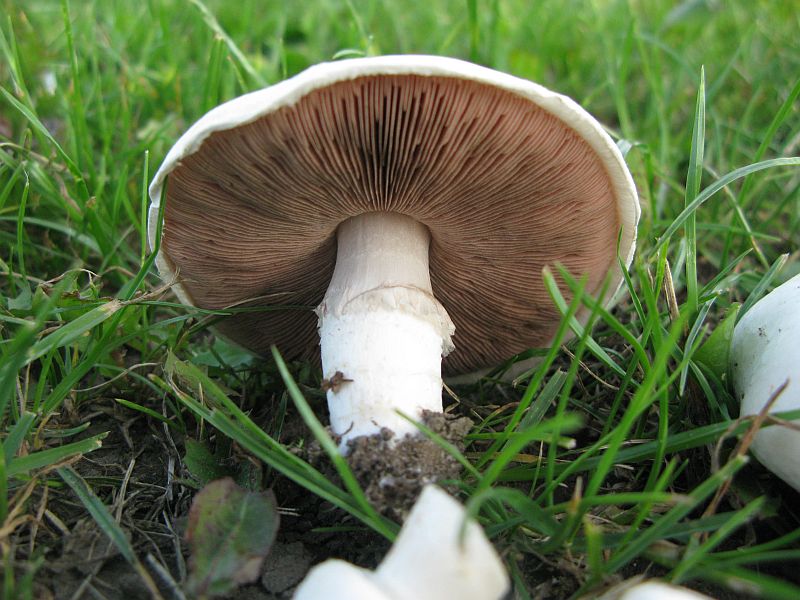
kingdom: Fungi
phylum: Basidiomycota
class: Agaricomycetes
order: Agaricales
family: Agaricaceae
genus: Agaricus
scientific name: Agaricus campestris
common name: mark-champignon
